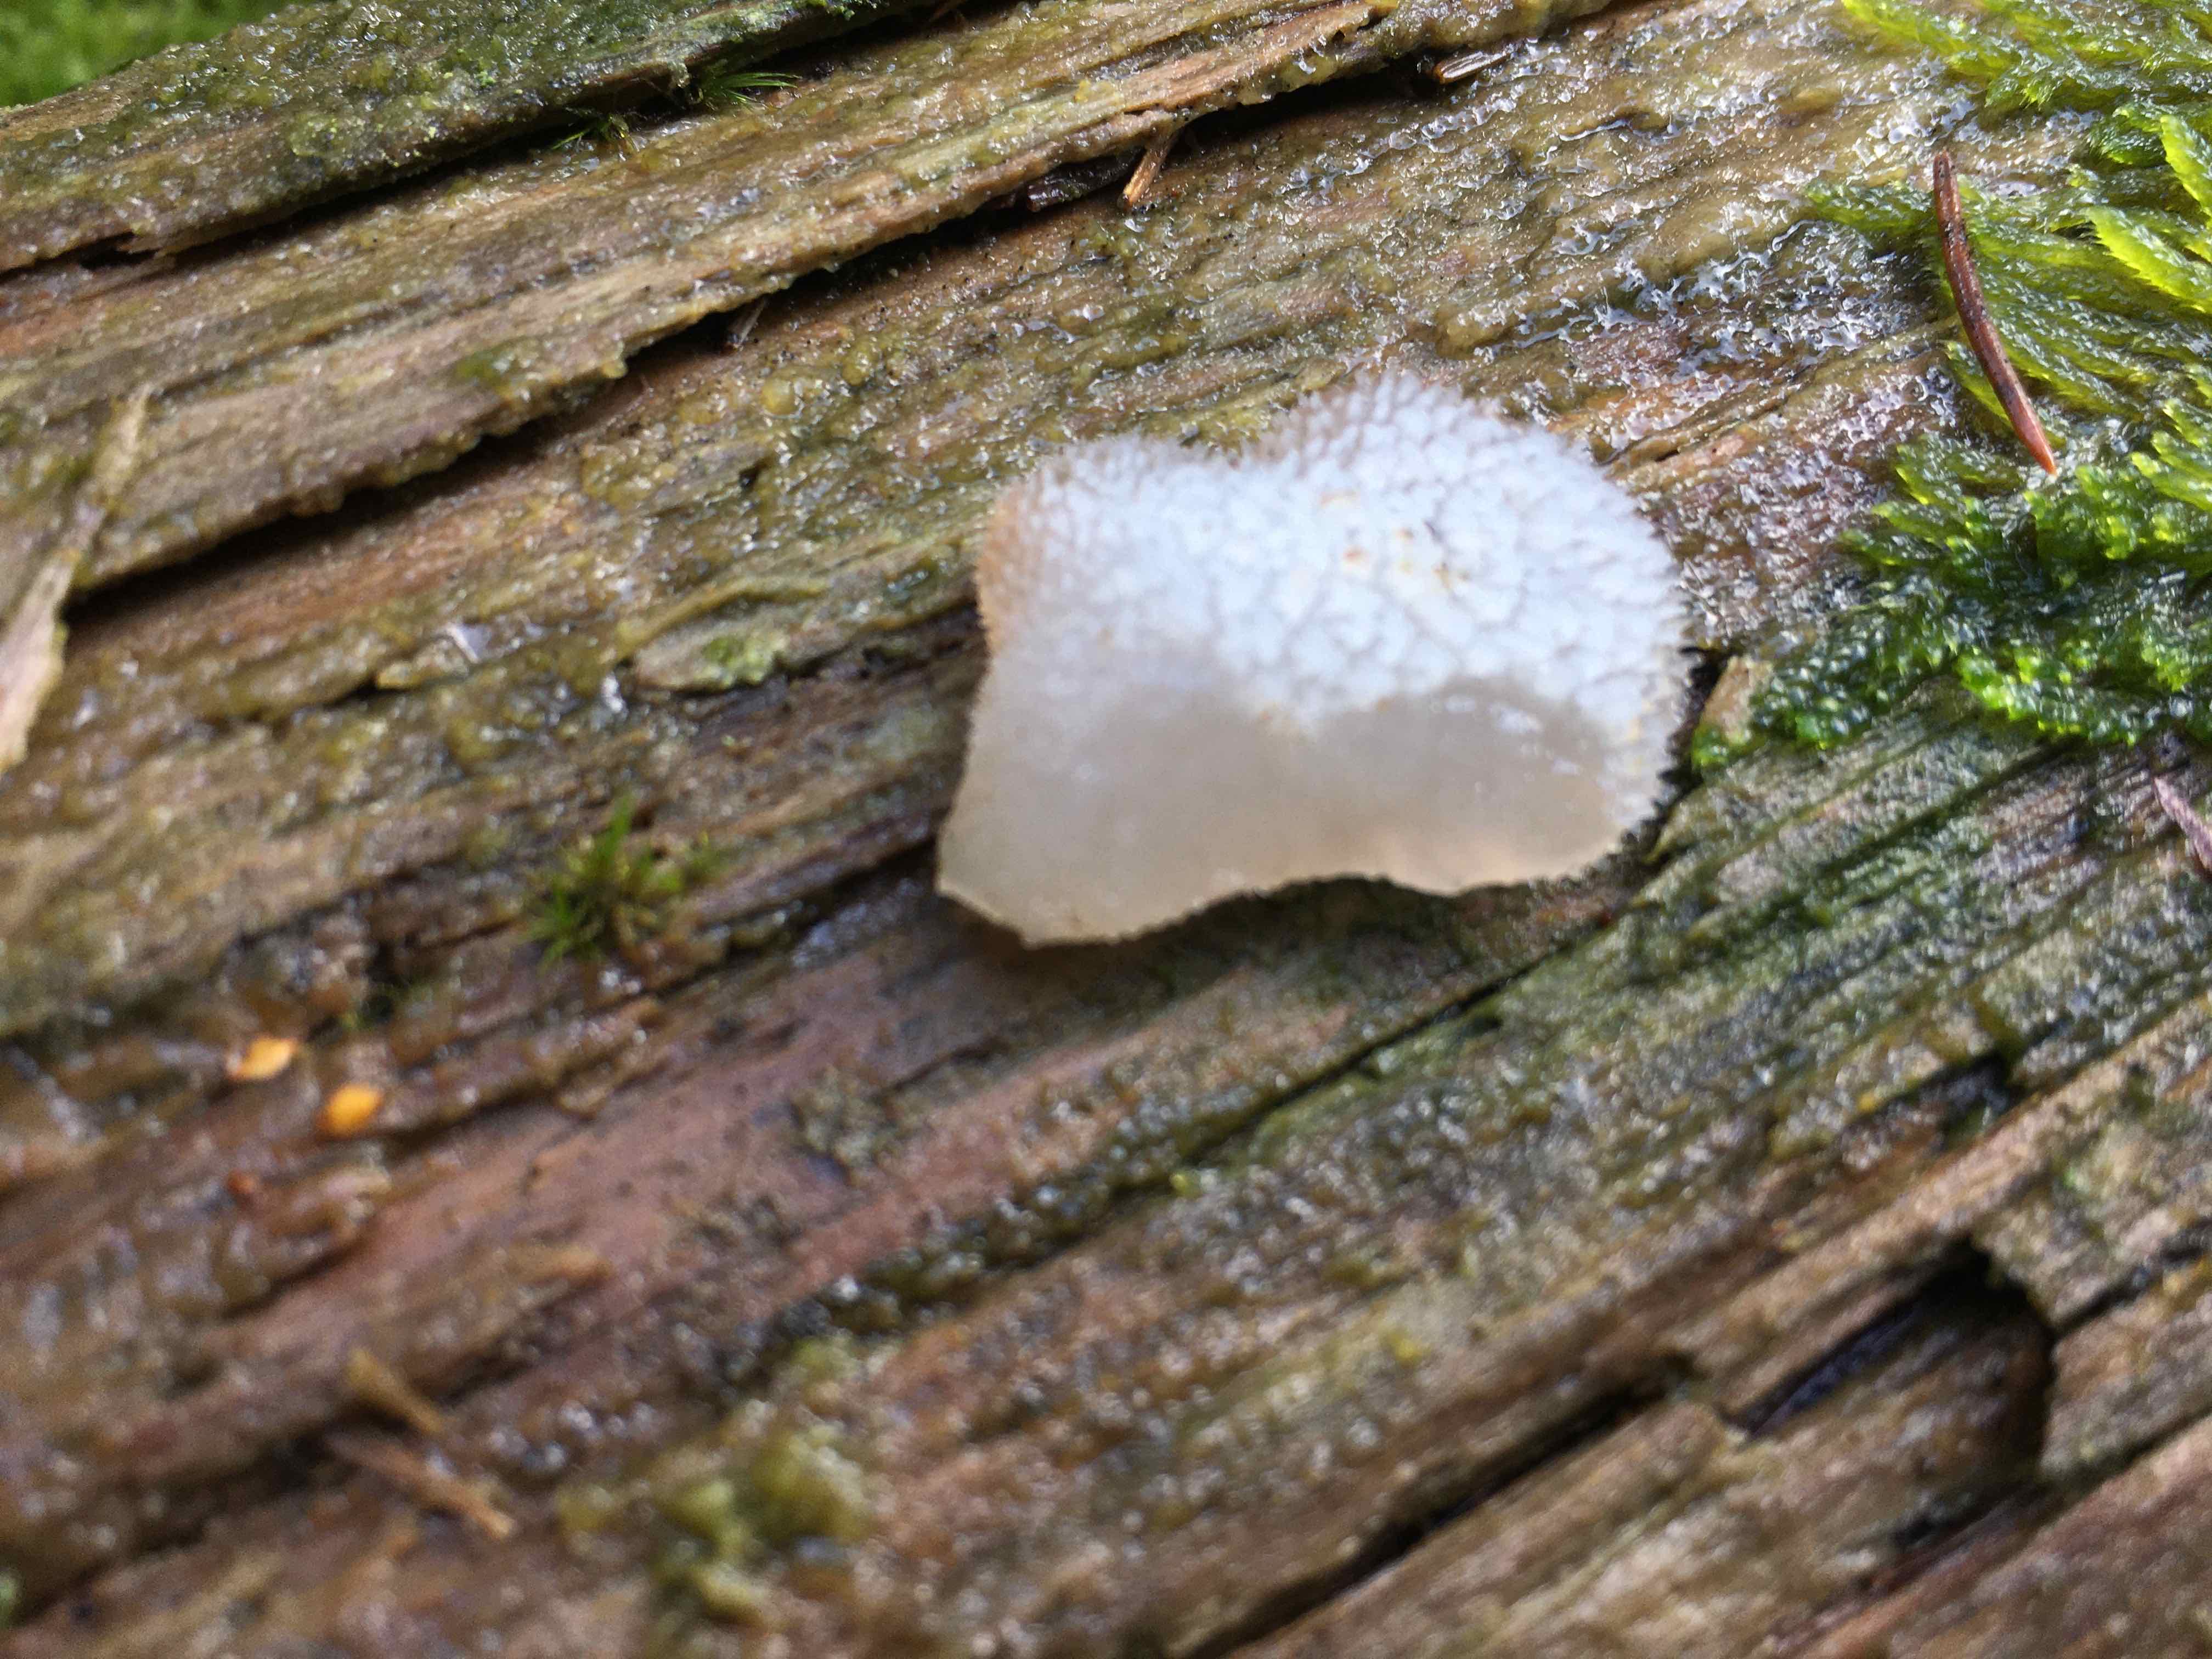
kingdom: Fungi
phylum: Basidiomycota
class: Agaricomycetes
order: Auriculariales
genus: Pseudohydnum
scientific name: Pseudohydnum gelatinosum
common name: bævretand
